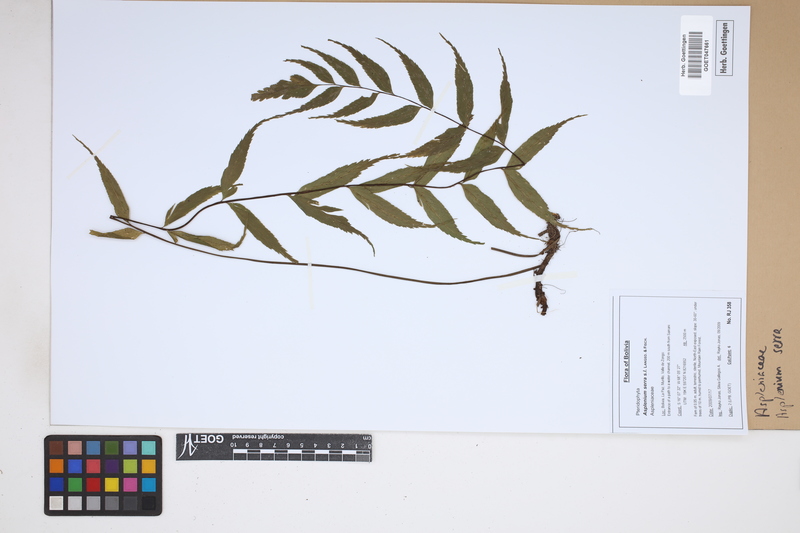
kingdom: Plantae
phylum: Tracheophyta
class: Polypodiopsida
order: Polypodiales
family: Aspleniaceae
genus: Asplenium
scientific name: Asplenium serra
